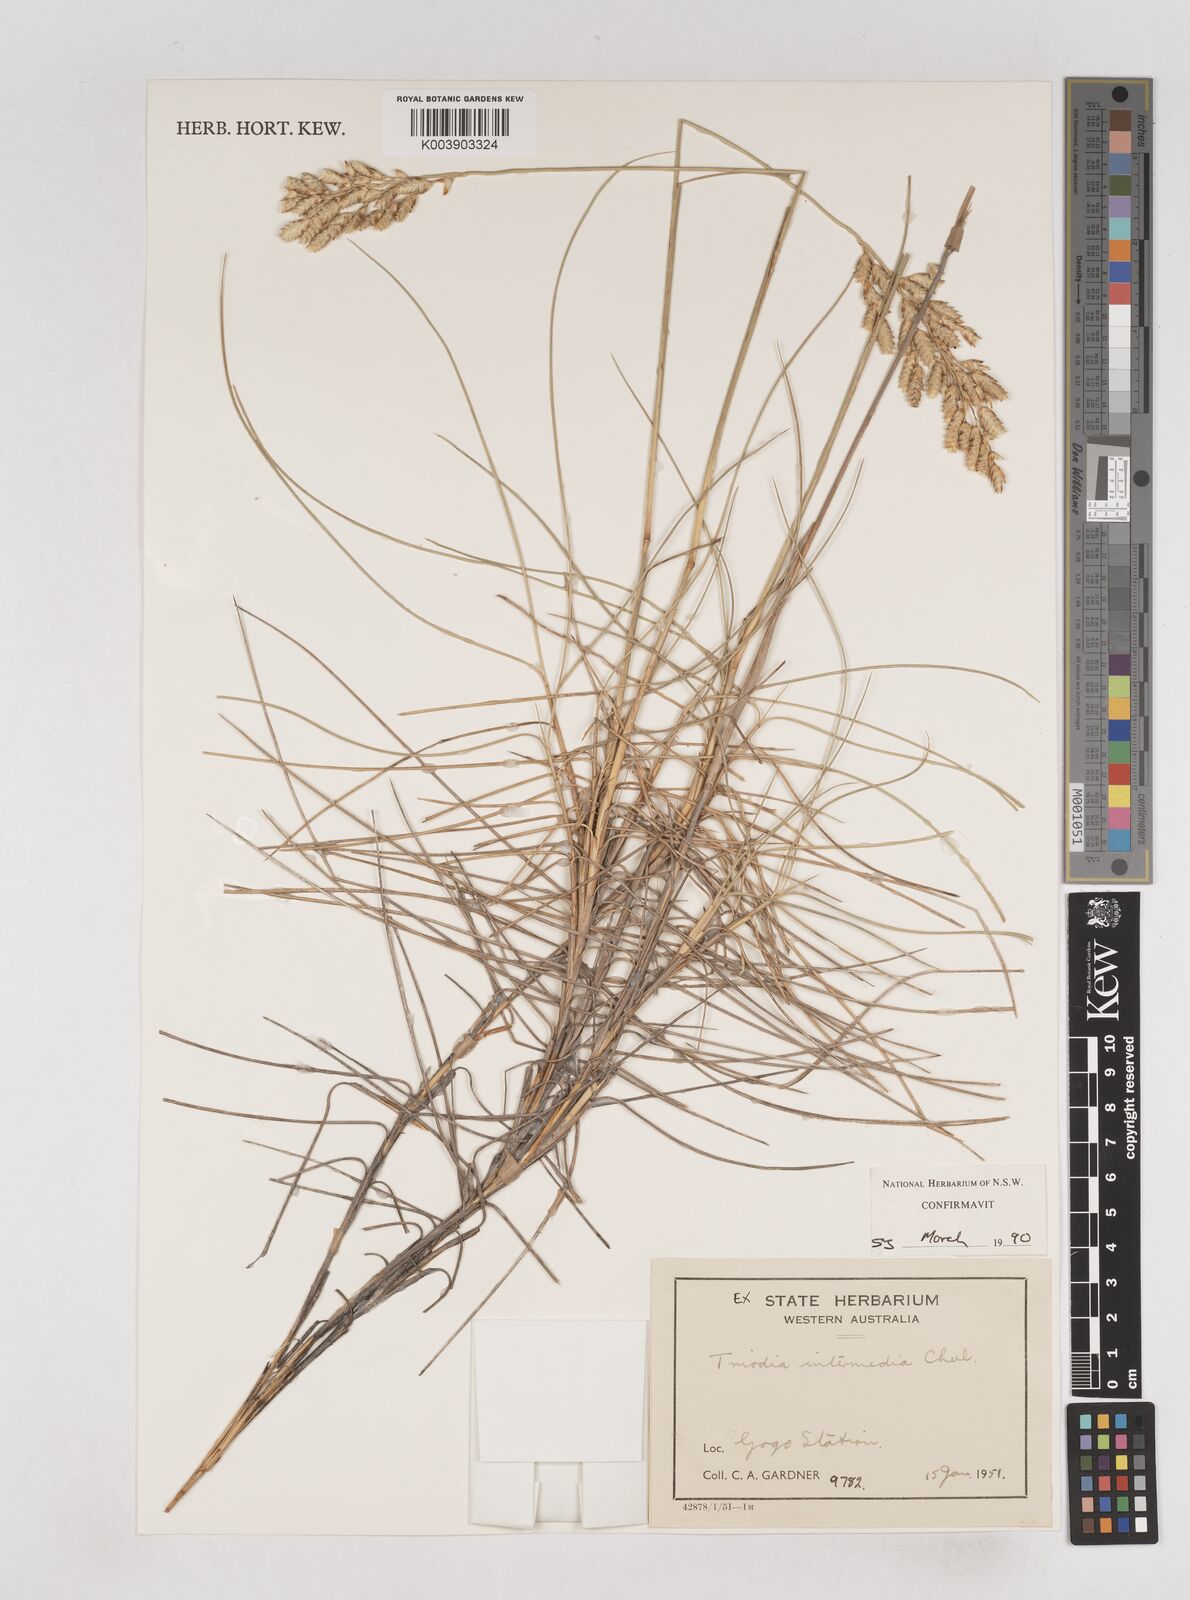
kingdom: Plantae
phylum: Tracheophyta
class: Liliopsida
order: Poales
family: Poaceae
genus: Triodia
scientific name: Triodia intermedia
